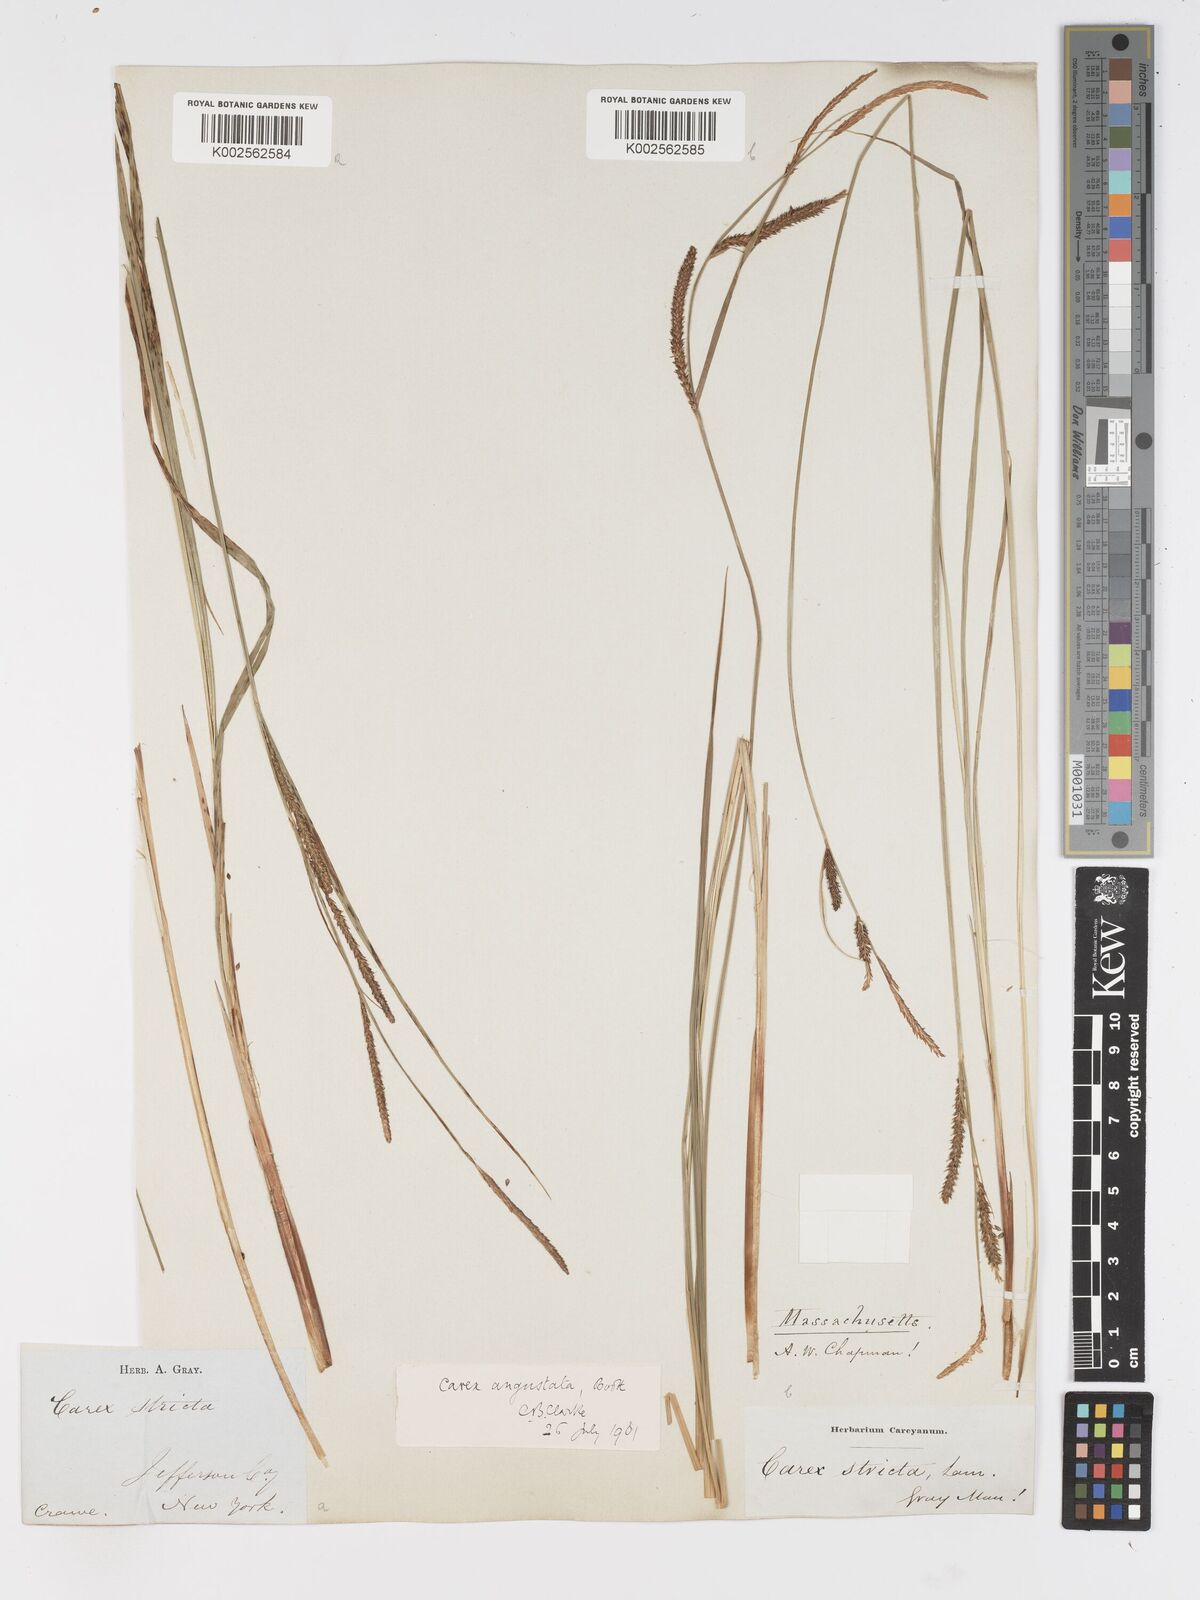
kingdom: Plantae
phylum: Tracheophyta
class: Liliopsida
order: Poales
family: Cyperaceae
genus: Carex
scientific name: Carex haydenii
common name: Hayden's sedge
